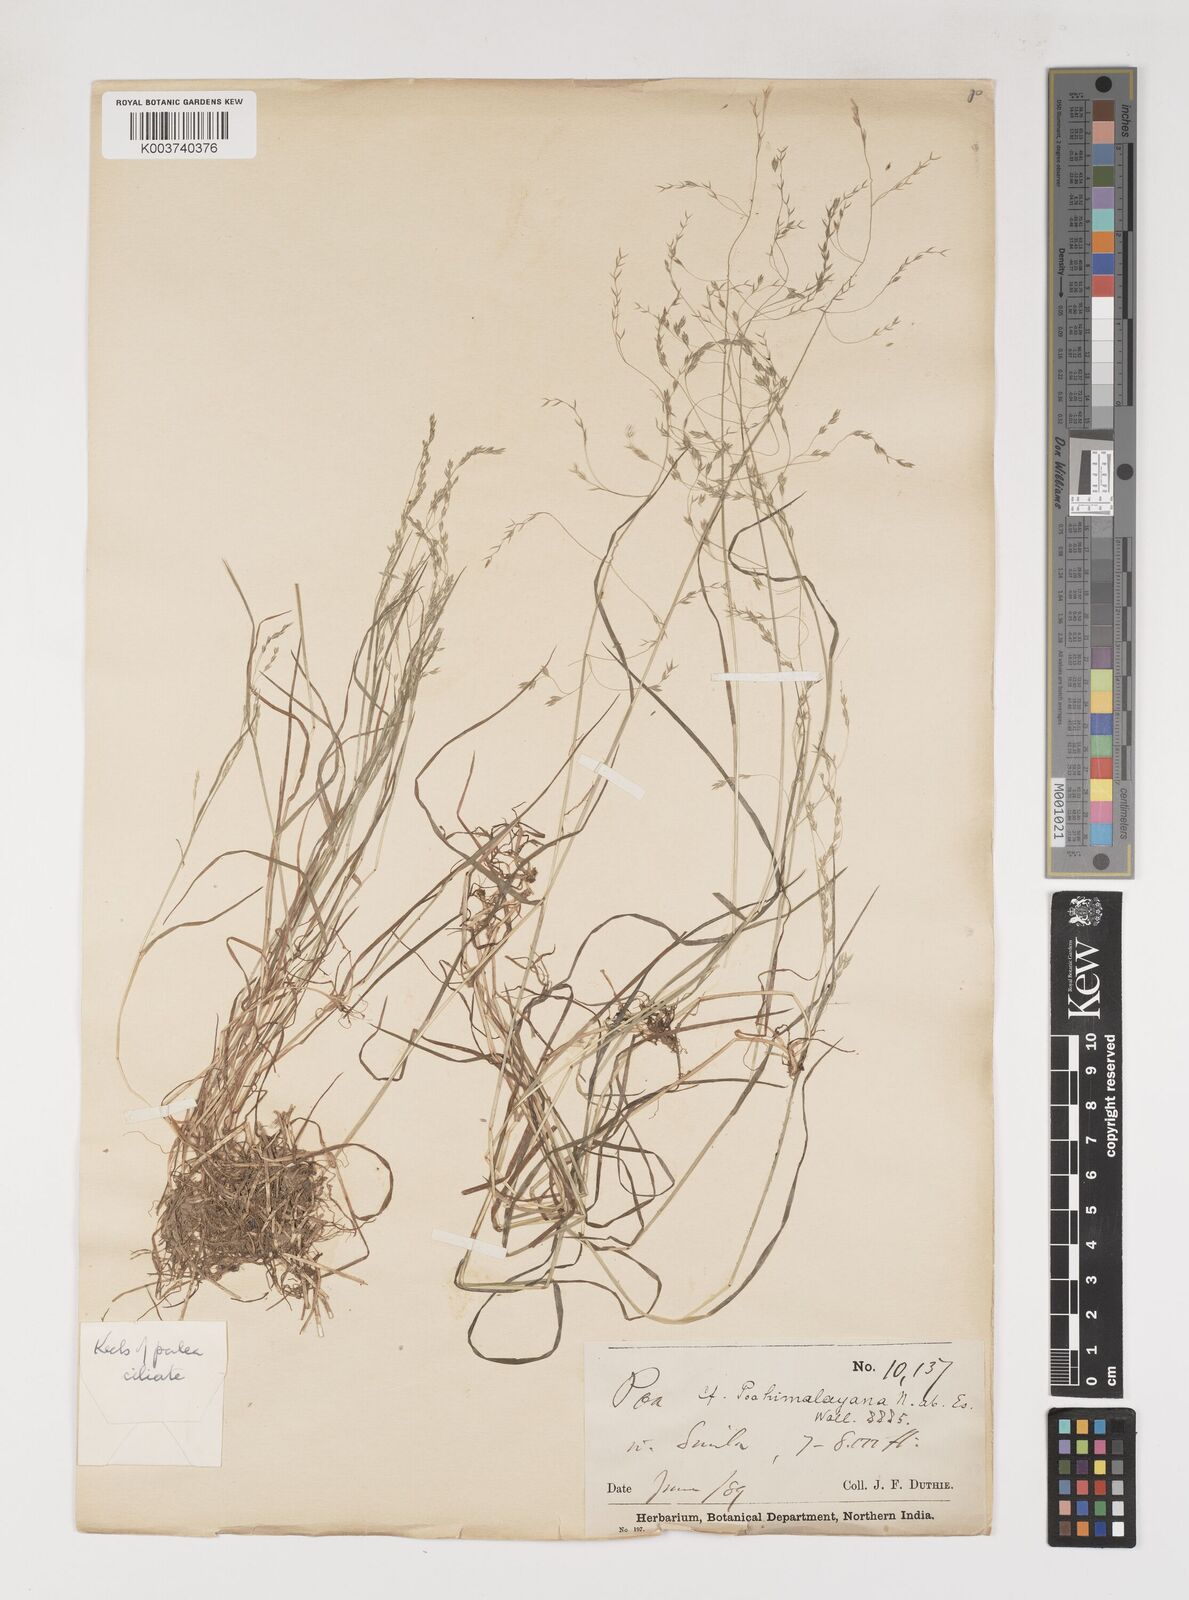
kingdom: Plantae
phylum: Tracheophyta
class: Liliopsida
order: Poales
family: Poaceae
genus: Poa
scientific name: Poa stewartiana
